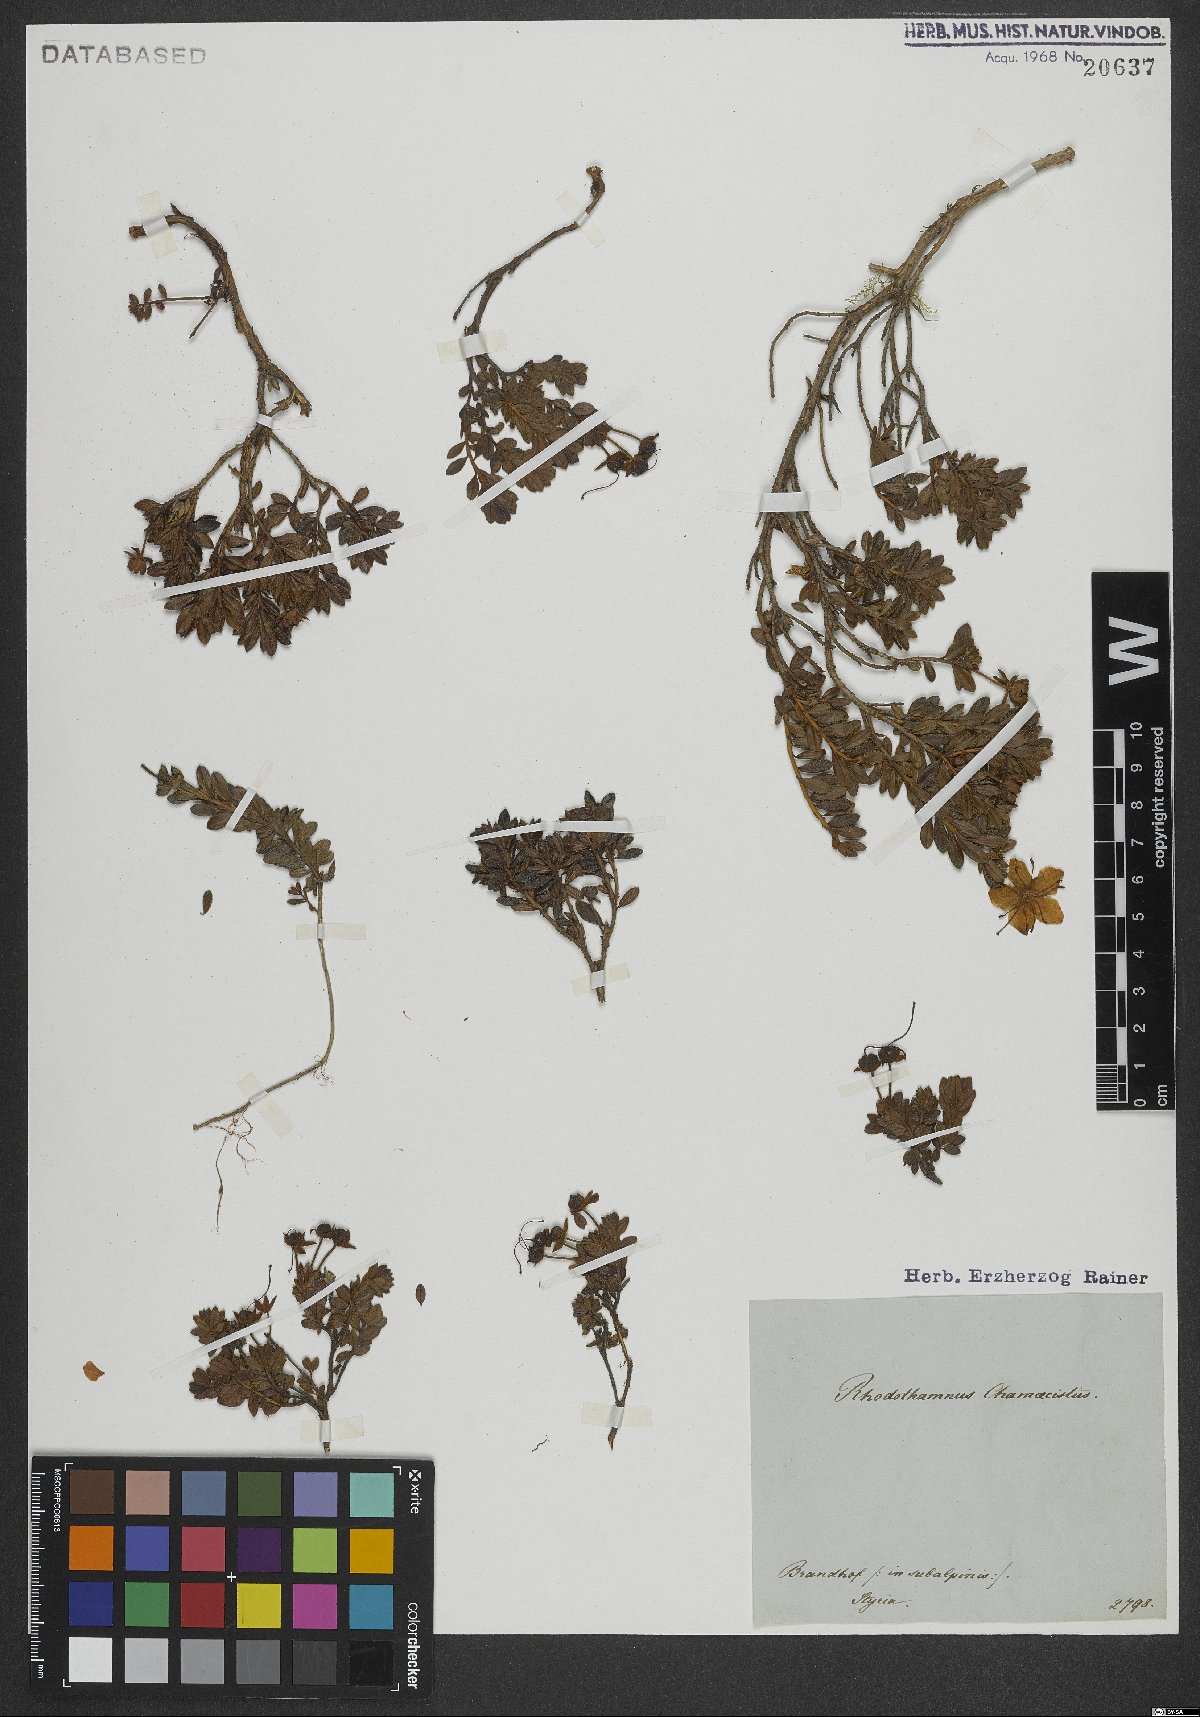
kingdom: Plantae
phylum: Tracheophyta
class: Magnoliopsida
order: Ericales
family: Ericaceae
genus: Rhodothamnus
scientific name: Rhodothamnus chamaecistus
